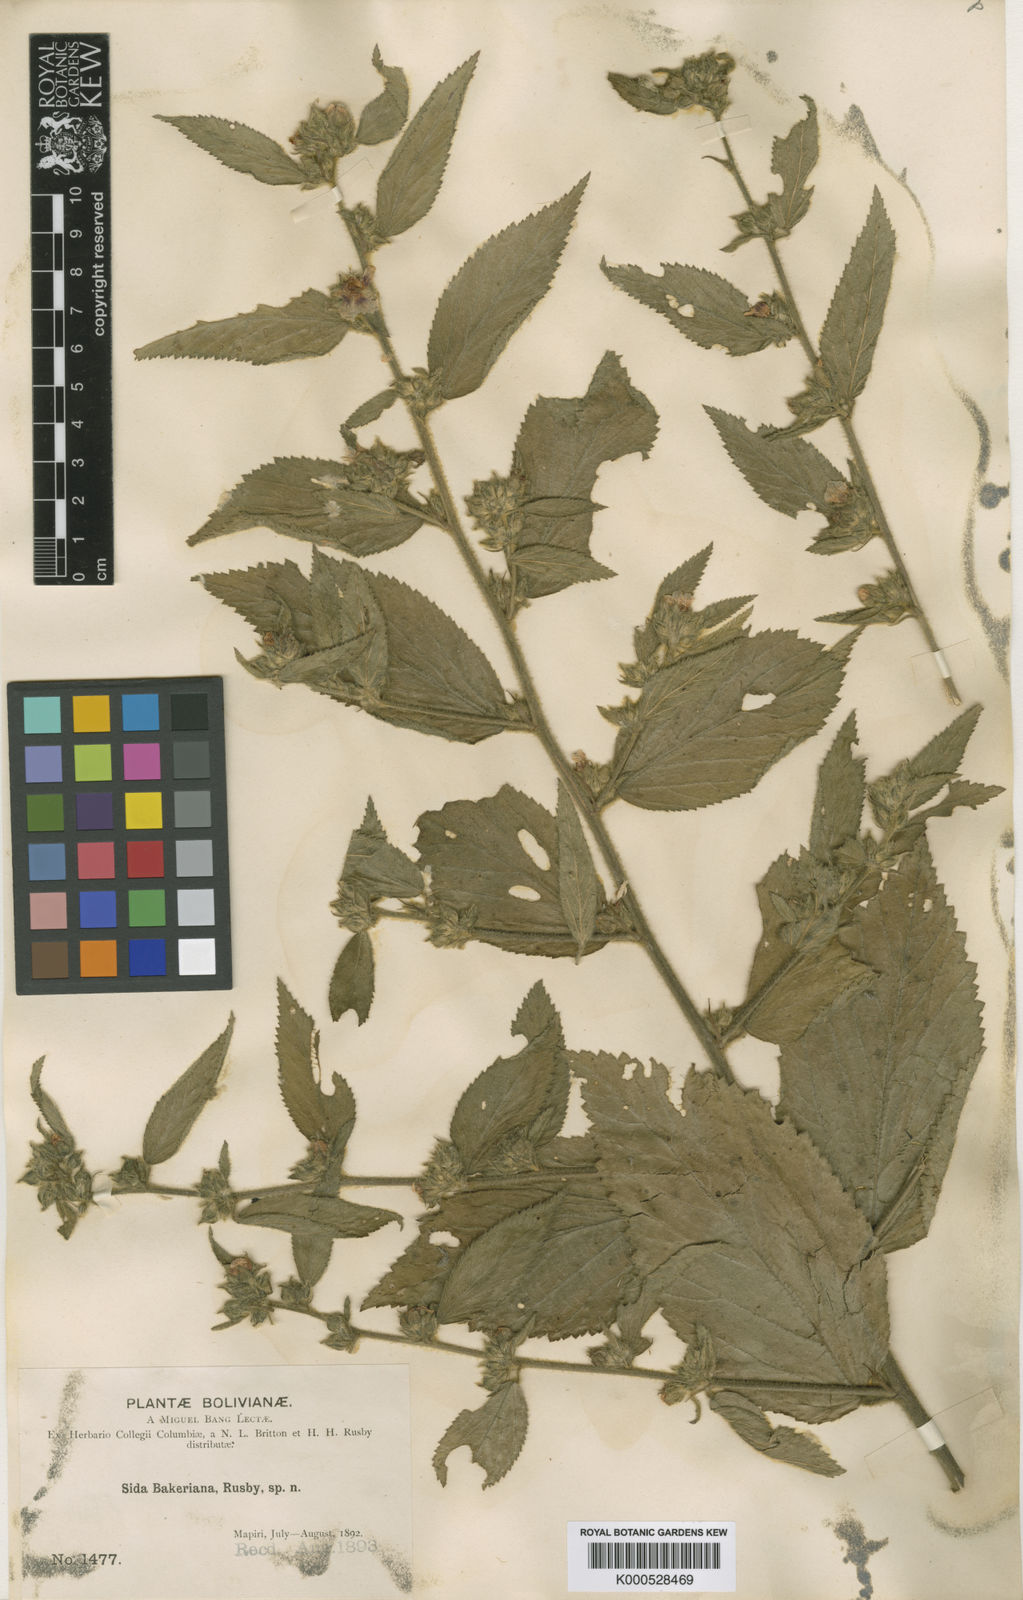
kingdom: Plantae
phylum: Tracheophyta
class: Magnoliopsida
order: Malvales
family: Malvaceae
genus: Sida
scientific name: Sida
